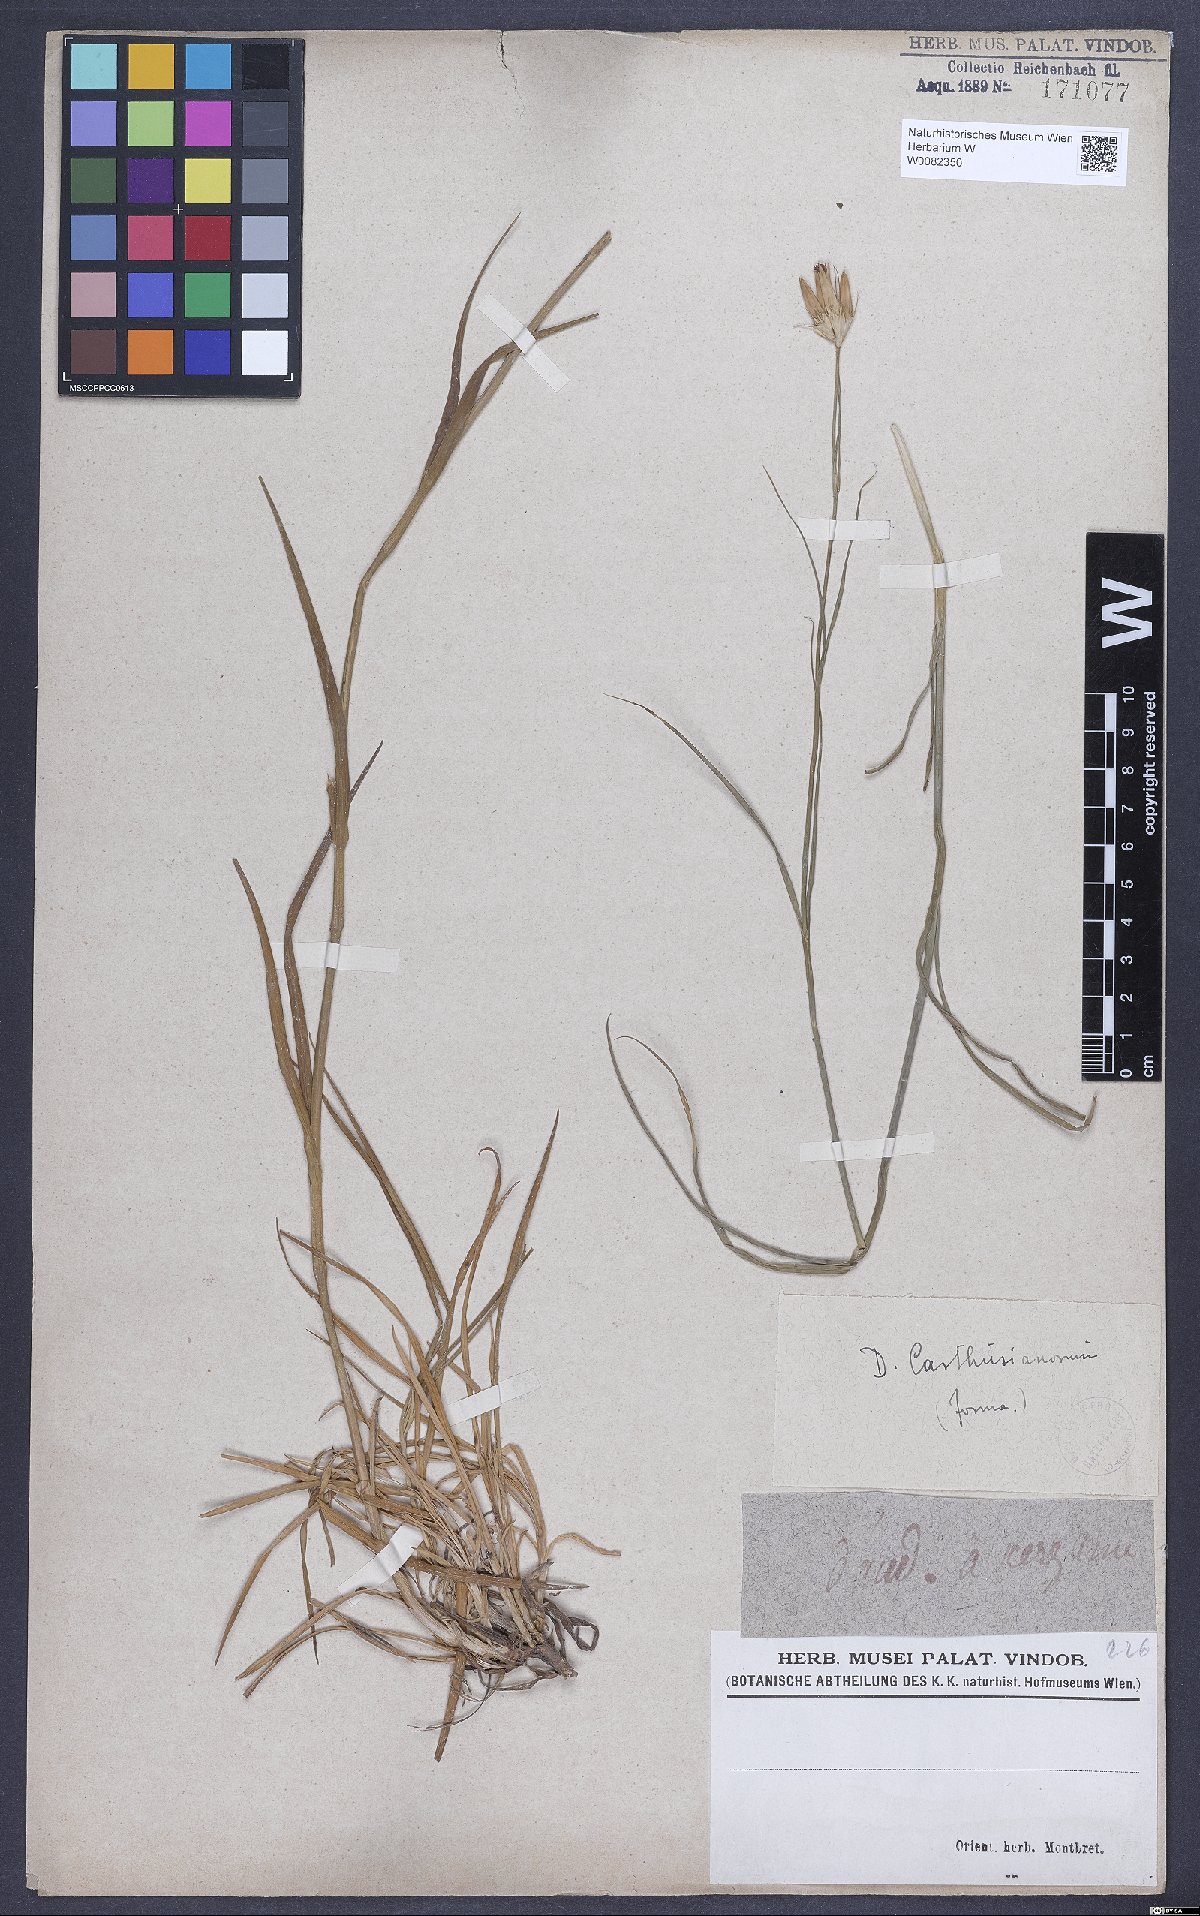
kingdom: Plantae
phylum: Tracheophyta
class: Magnoliopsida
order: Caryophyllales
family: Caryophyllaceae
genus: Dianthus
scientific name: Dianthus carthusianorum
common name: Carthusian pink
